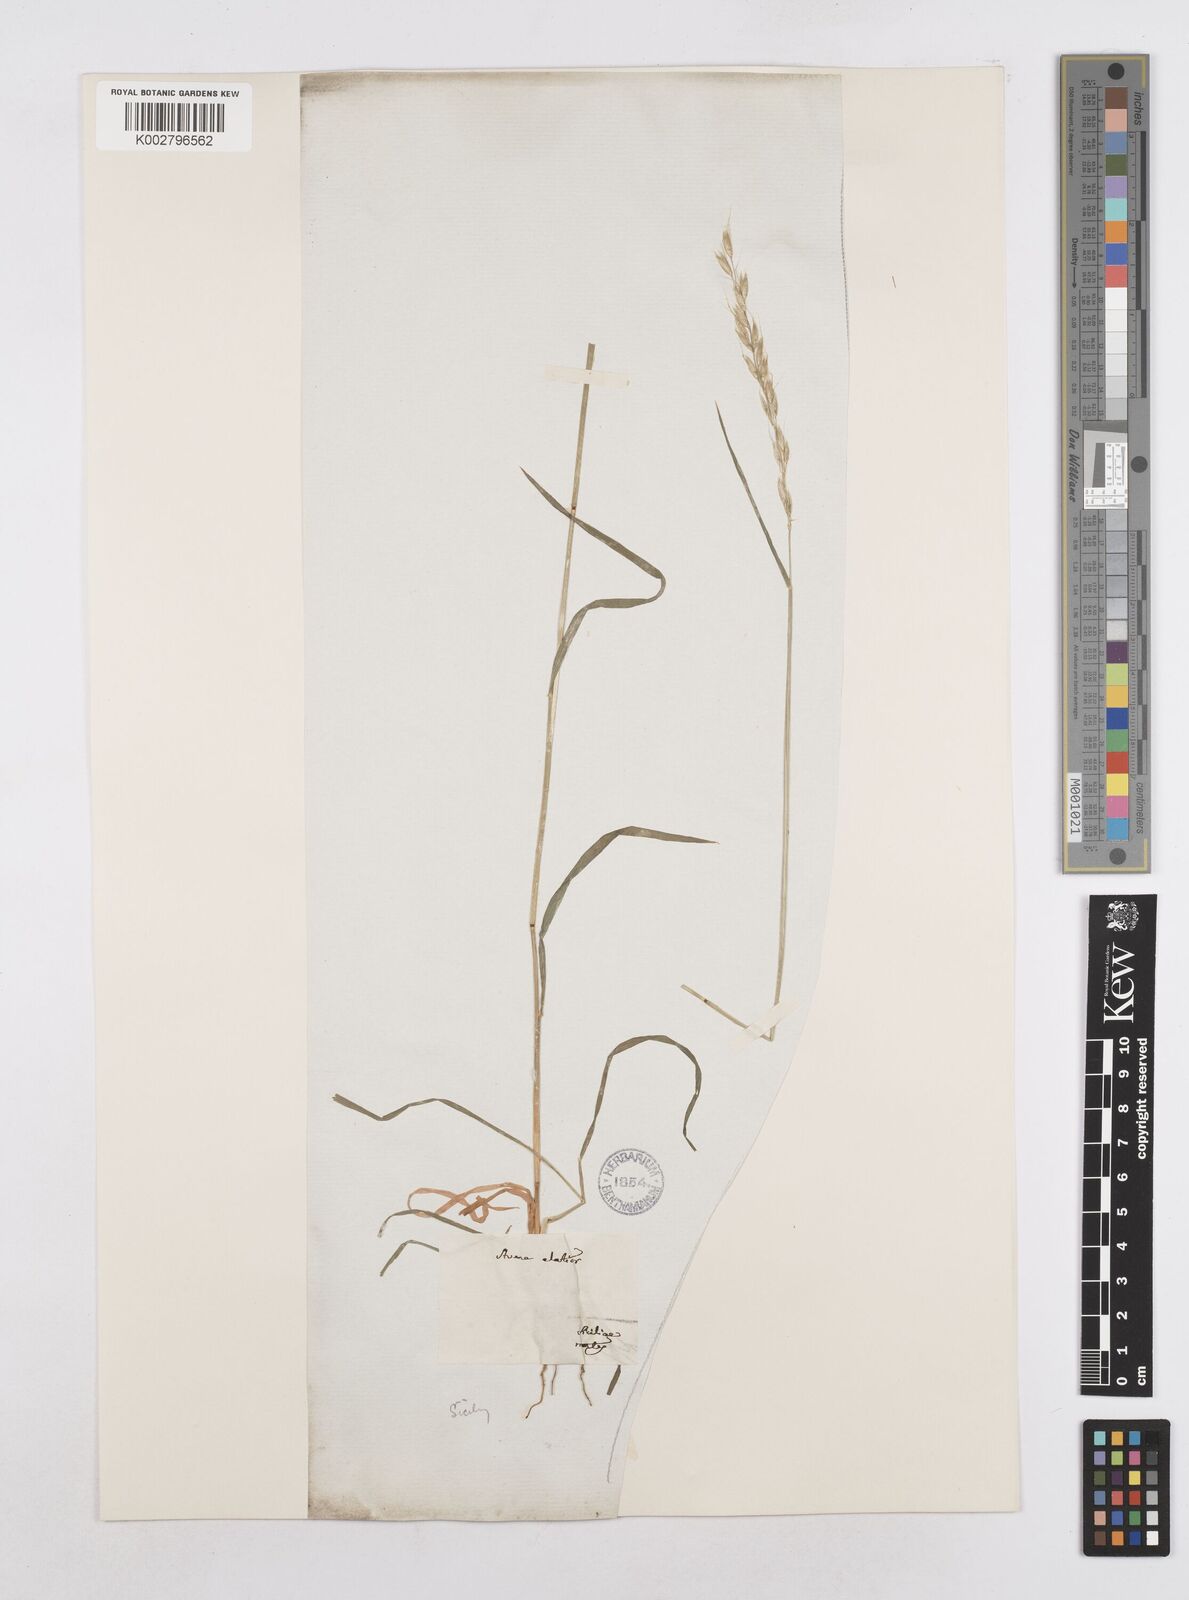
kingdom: Plantae
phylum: Tracheophyta
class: Liliopsida
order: Poales
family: Poaceae
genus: Arrhenatherum
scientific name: Arrhenatherum elatius
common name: Tall oatgrass
